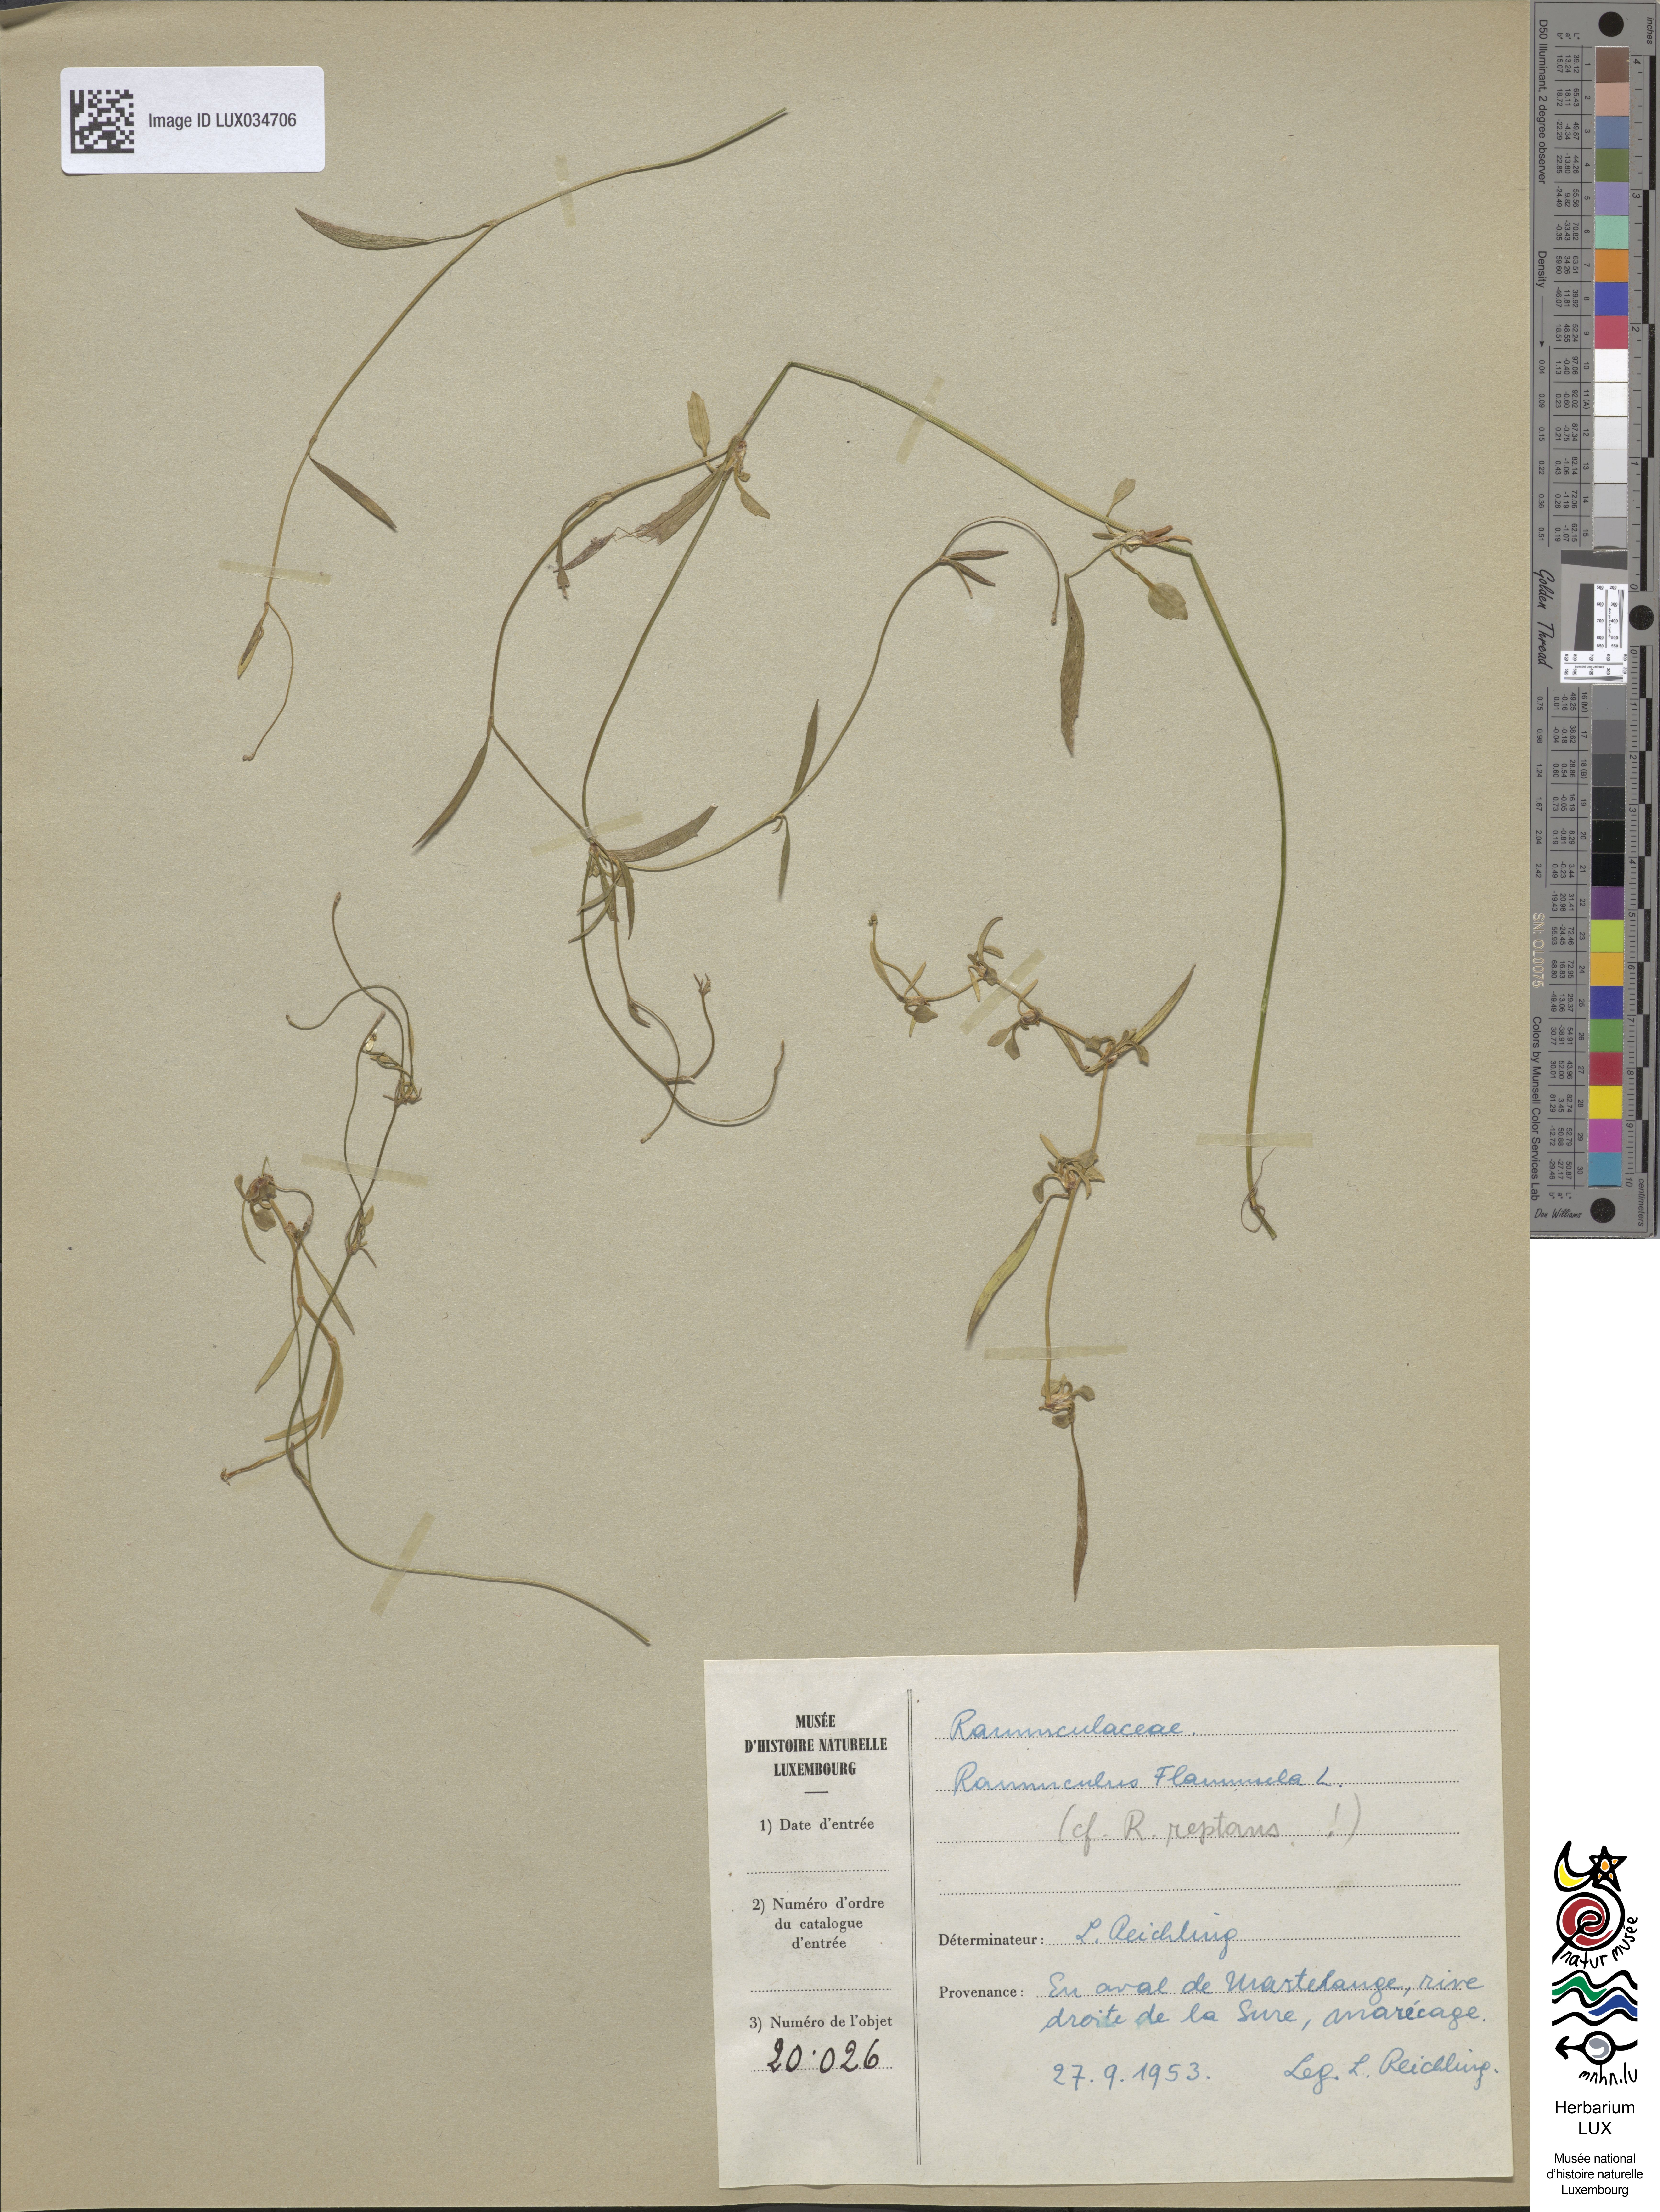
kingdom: Plantae
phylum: Tracheophyta
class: Magnoliopsida
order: Ranunculales
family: Ranunculaceae
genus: Ranunculus
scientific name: Ranunculus flammula
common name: Lesser spearwort
